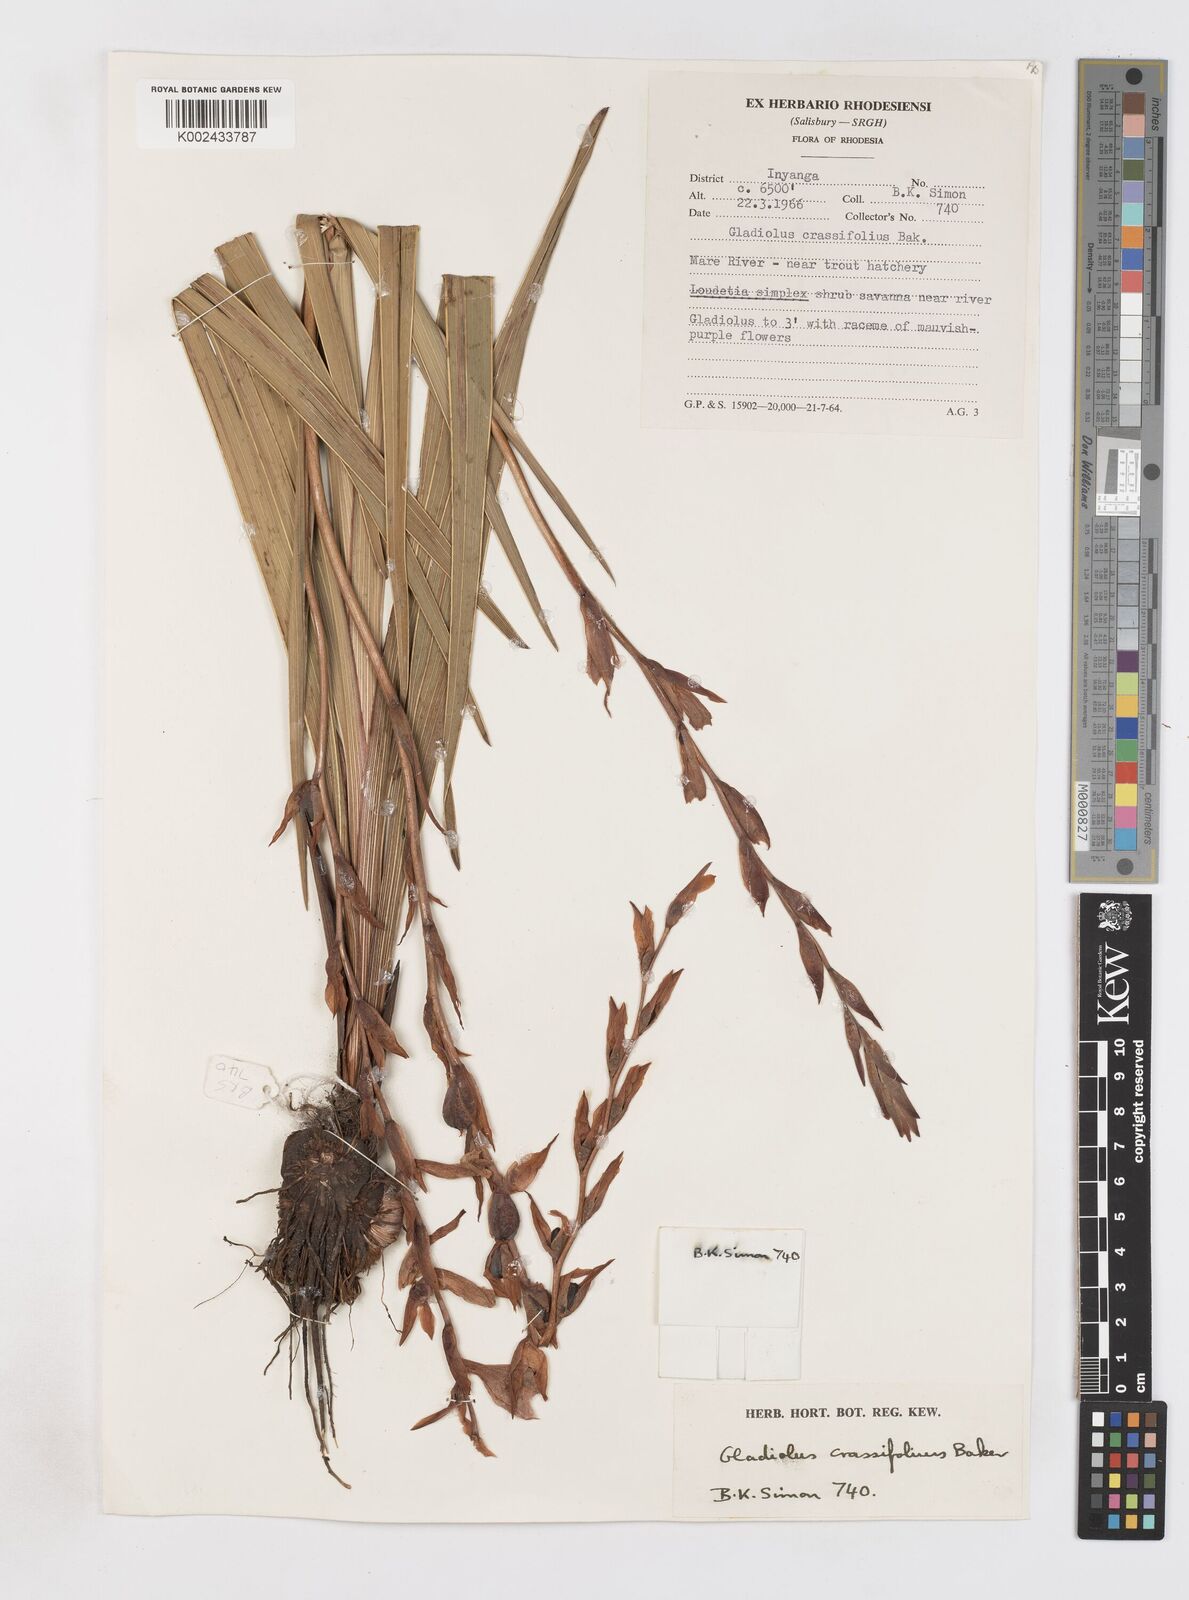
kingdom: Plantae
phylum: Tracheophyta
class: Liliopsida
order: Asparagales
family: Iridaceae
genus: Gladiolus
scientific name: Gladiolus crassifolius
